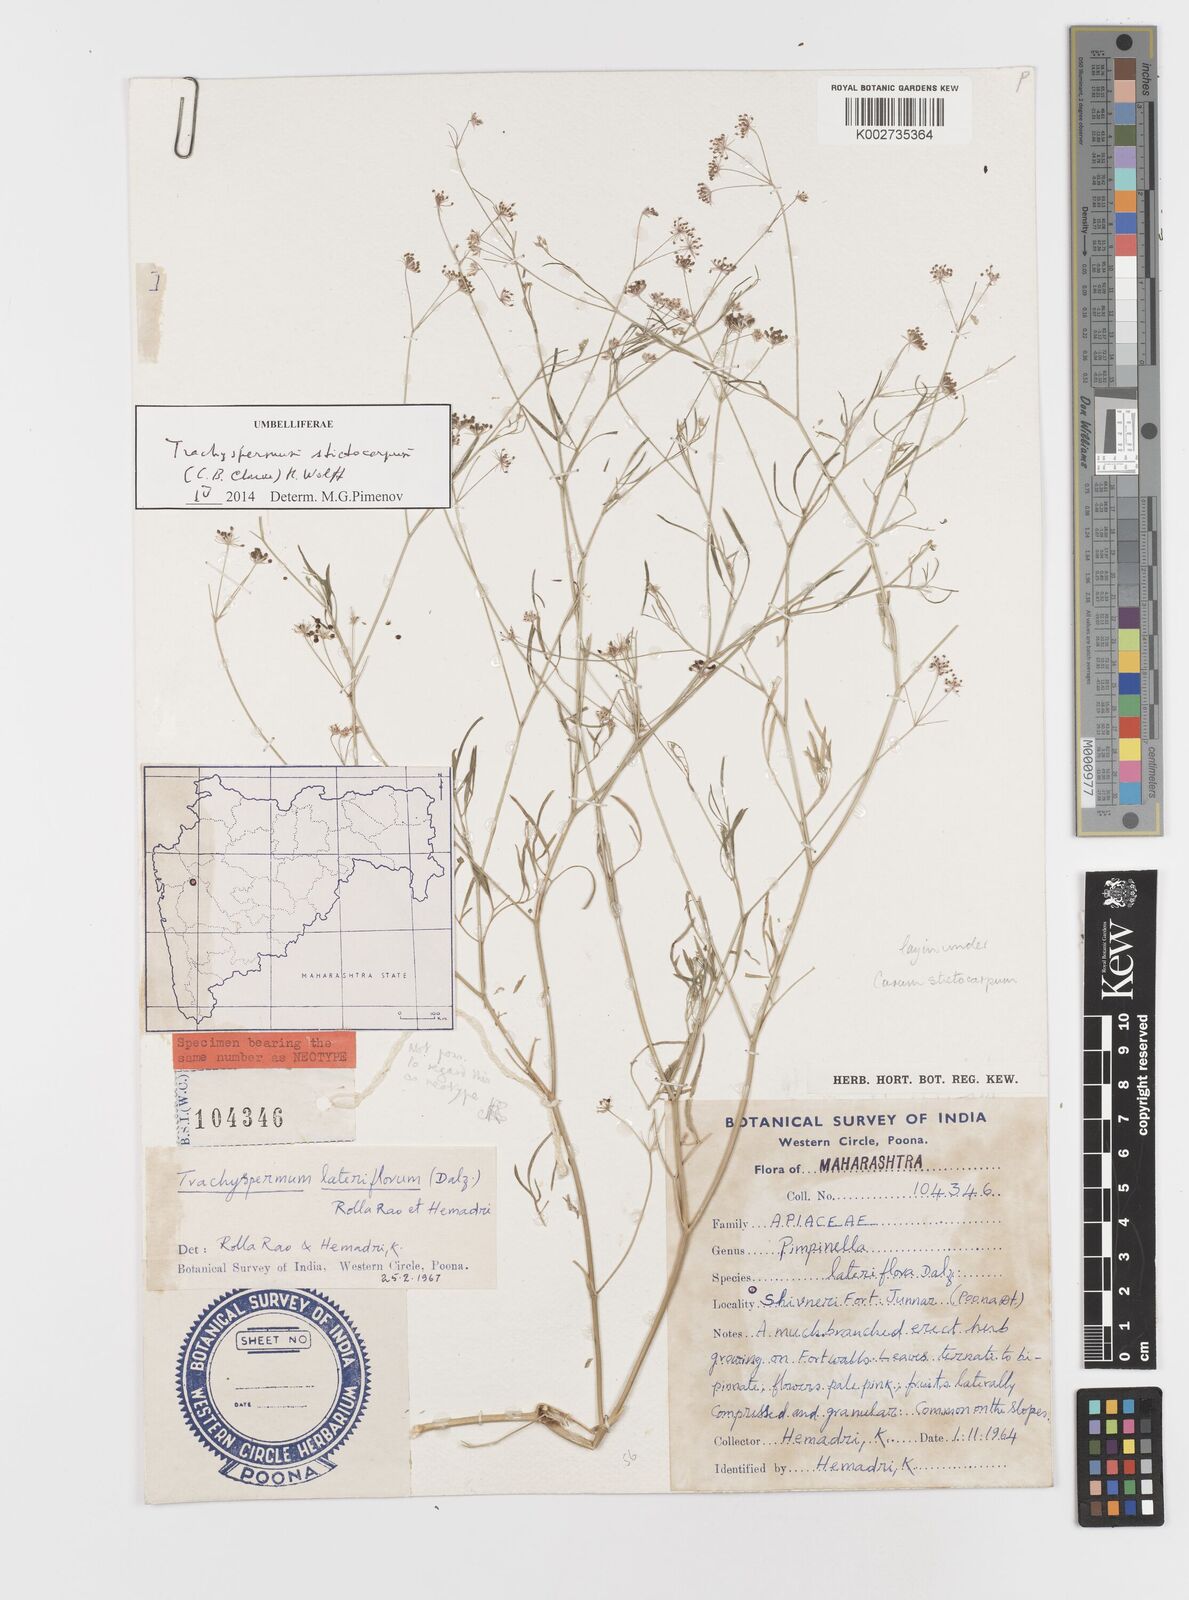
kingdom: Plantae
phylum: Tracheophyta
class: Magnoliopsida
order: Apiales
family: Apiaceae
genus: Psammogeton
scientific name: Psammogeton involucratum
